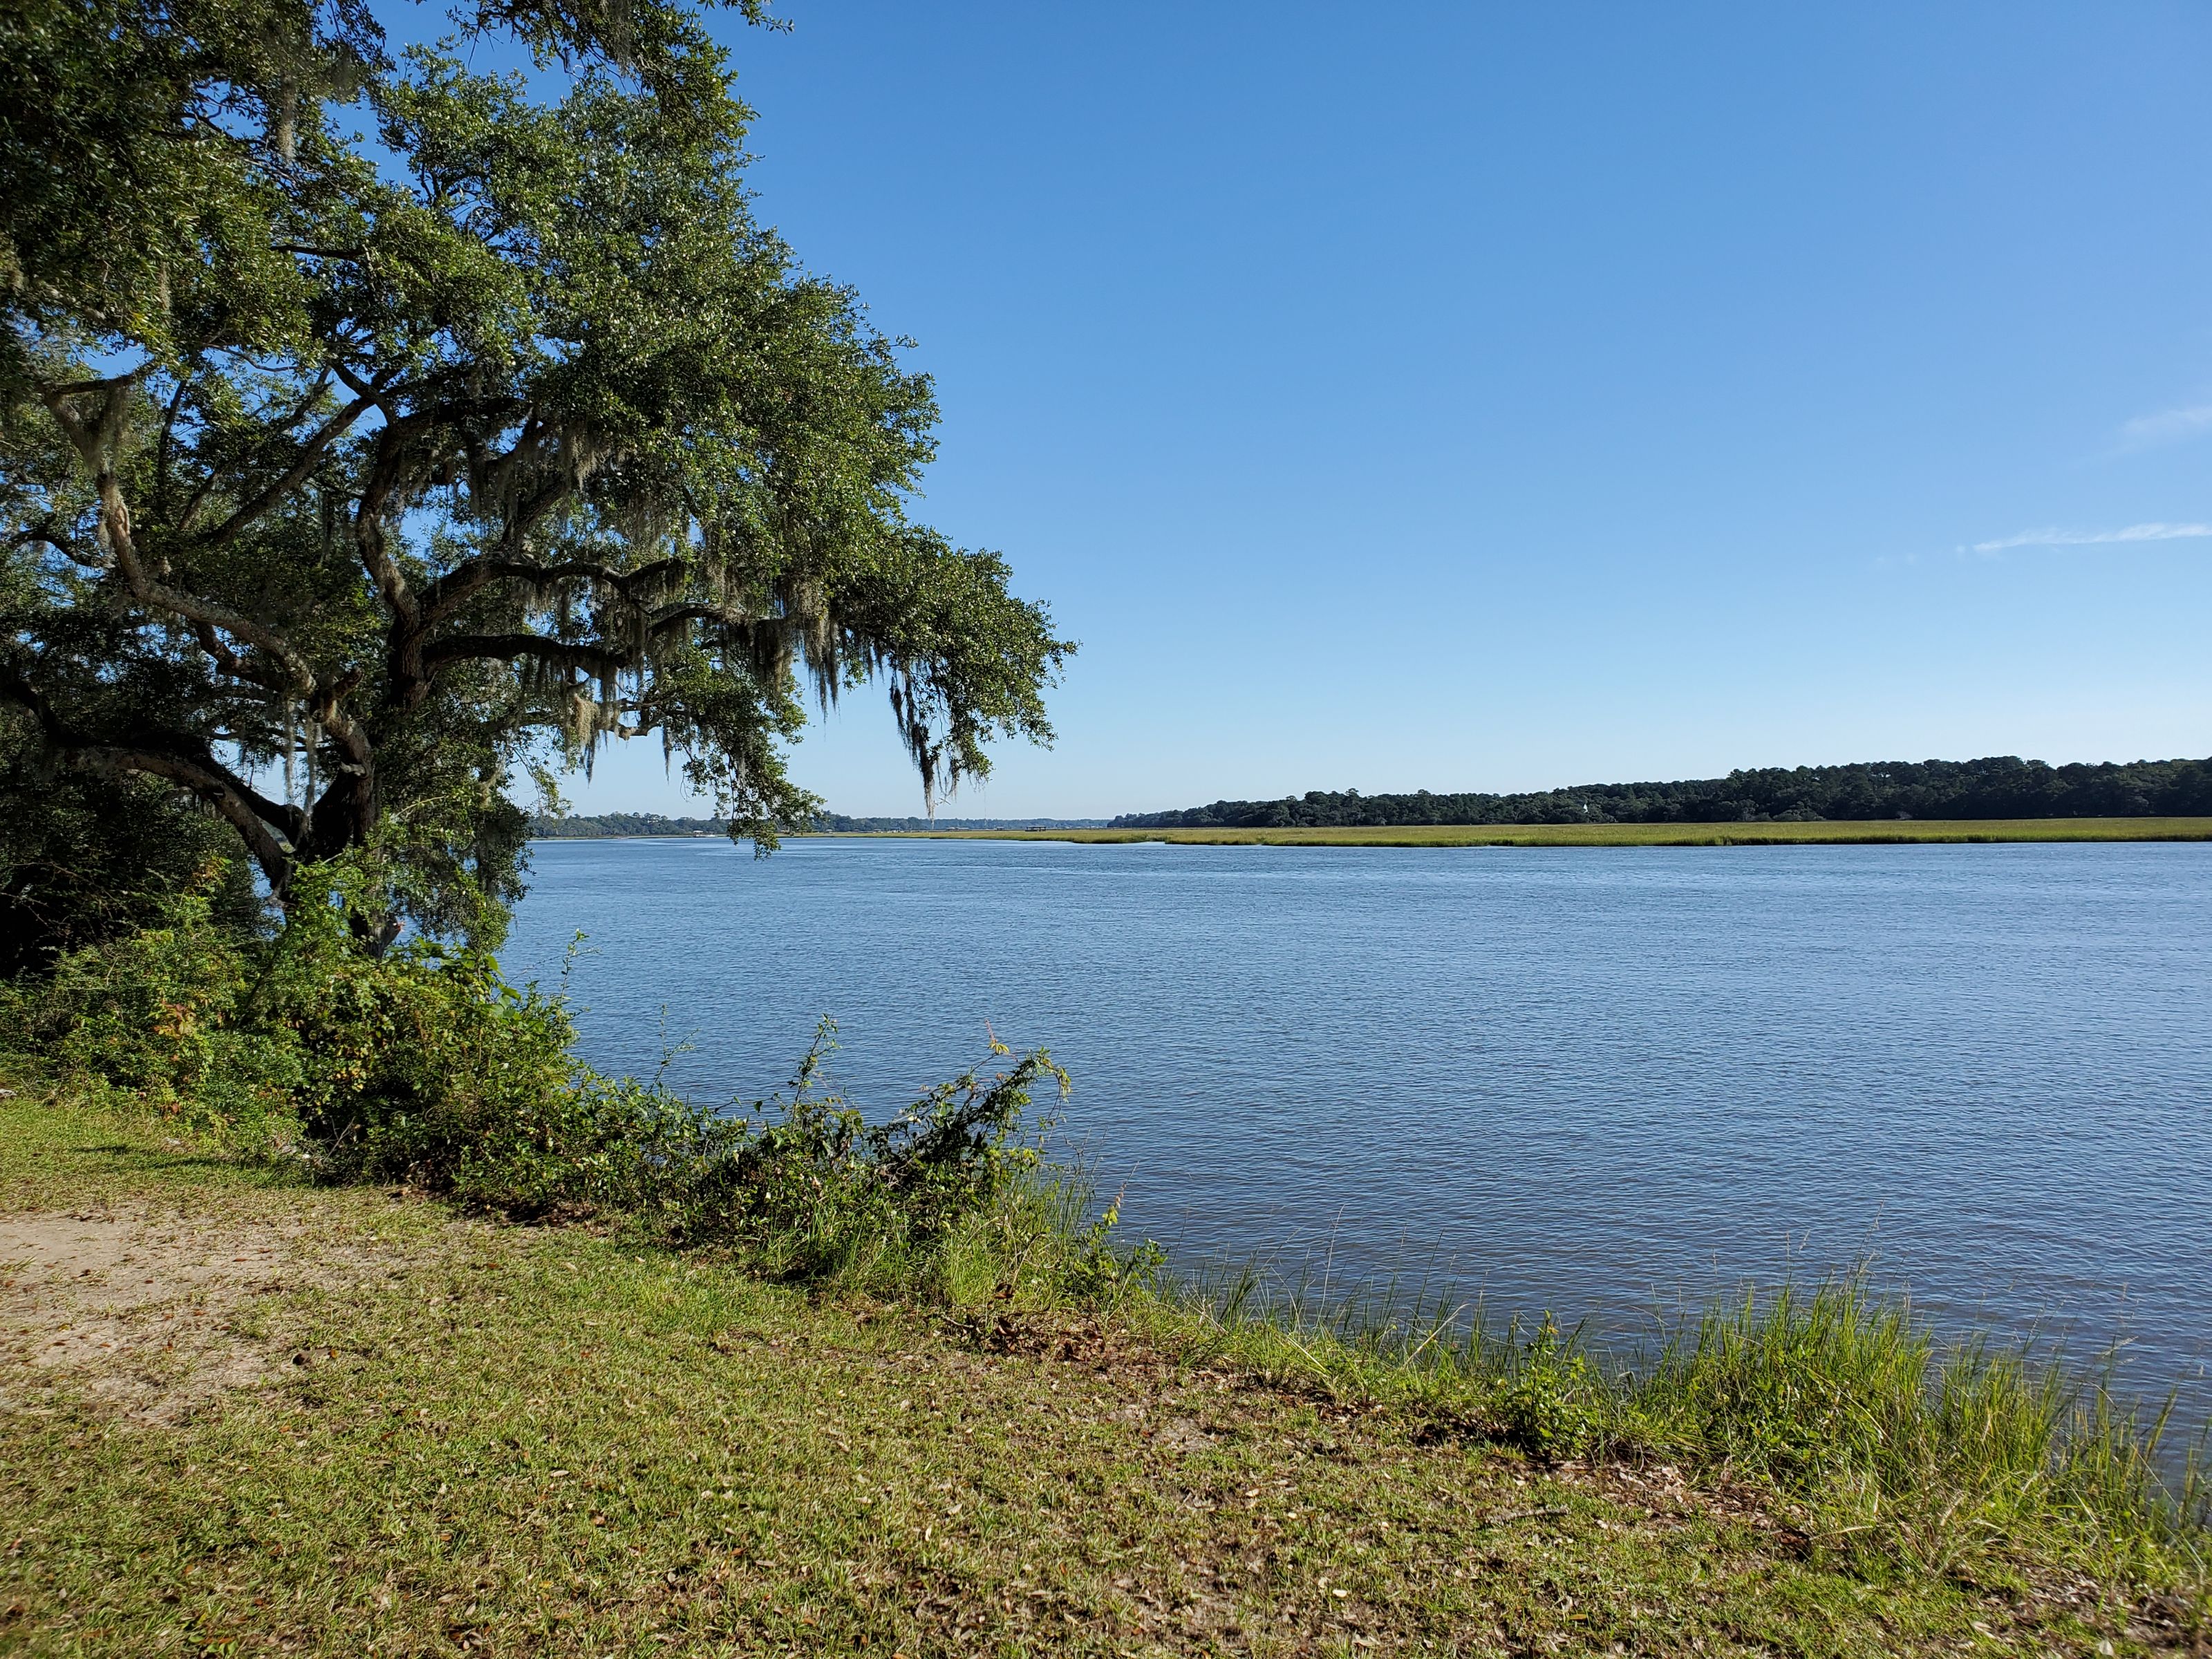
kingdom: Animalia
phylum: Chordata
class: Mammalia
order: Cetacea
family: Delphinidae
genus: Tursiops
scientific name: Tursiops truncatus
